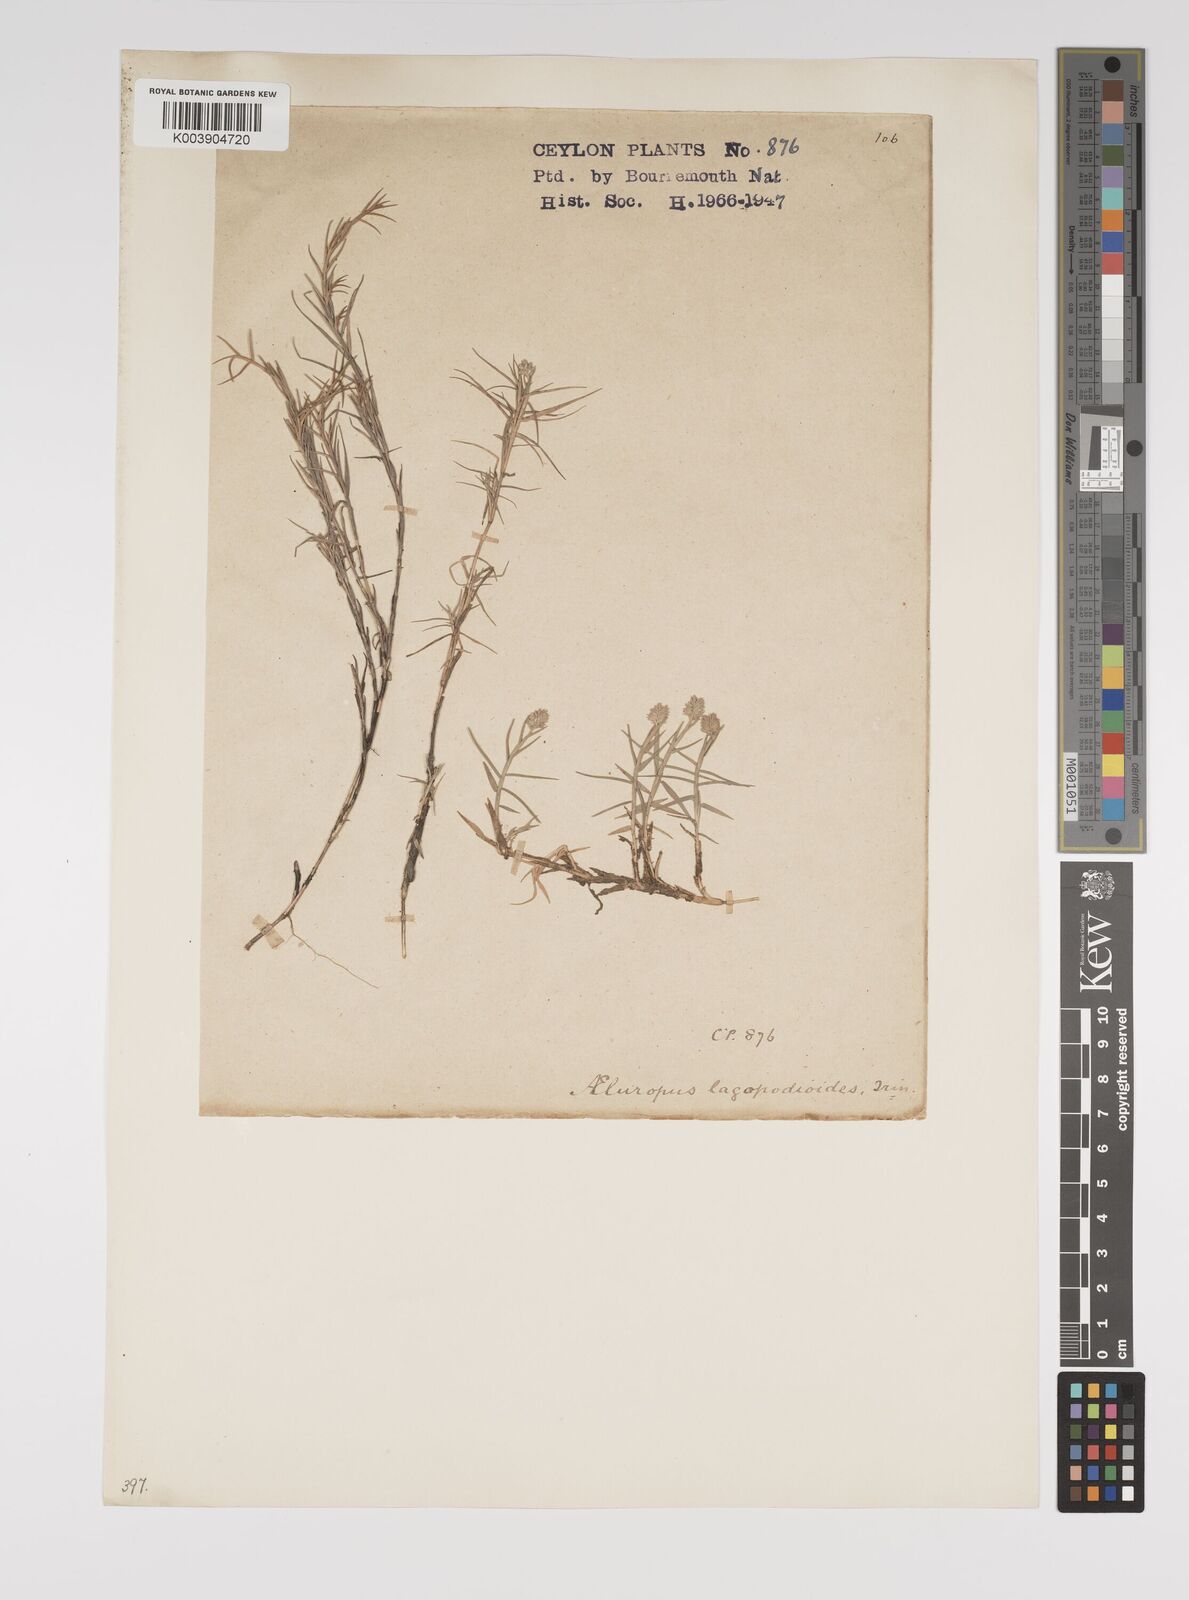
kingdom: Plantae
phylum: Tracheophyta
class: Liliopsida
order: Poales
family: Poaceae
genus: Aeluropus
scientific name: Aeluropus lagopoides
